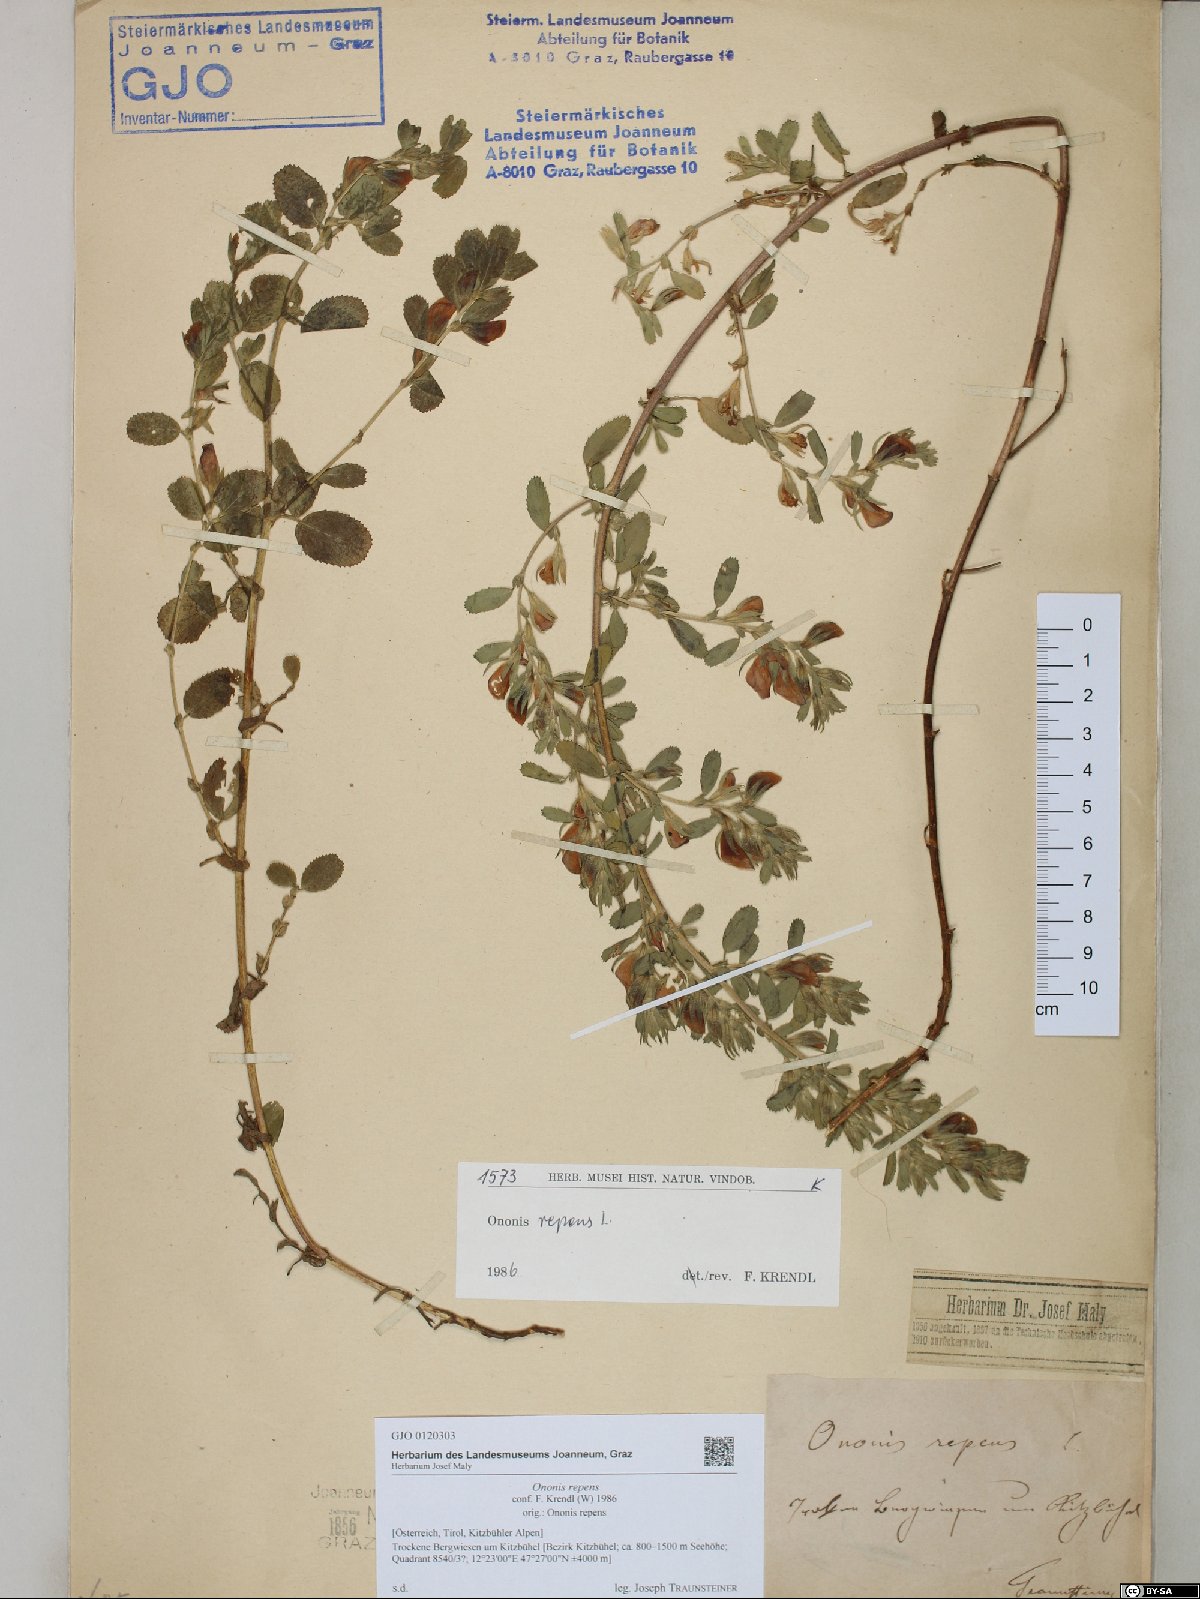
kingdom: Plantae
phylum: Tracheophyta
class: Magnoliopsida
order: Fabales
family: Fabaceae
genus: Ononis
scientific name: Ononis spinosa
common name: Spiny restharrow
